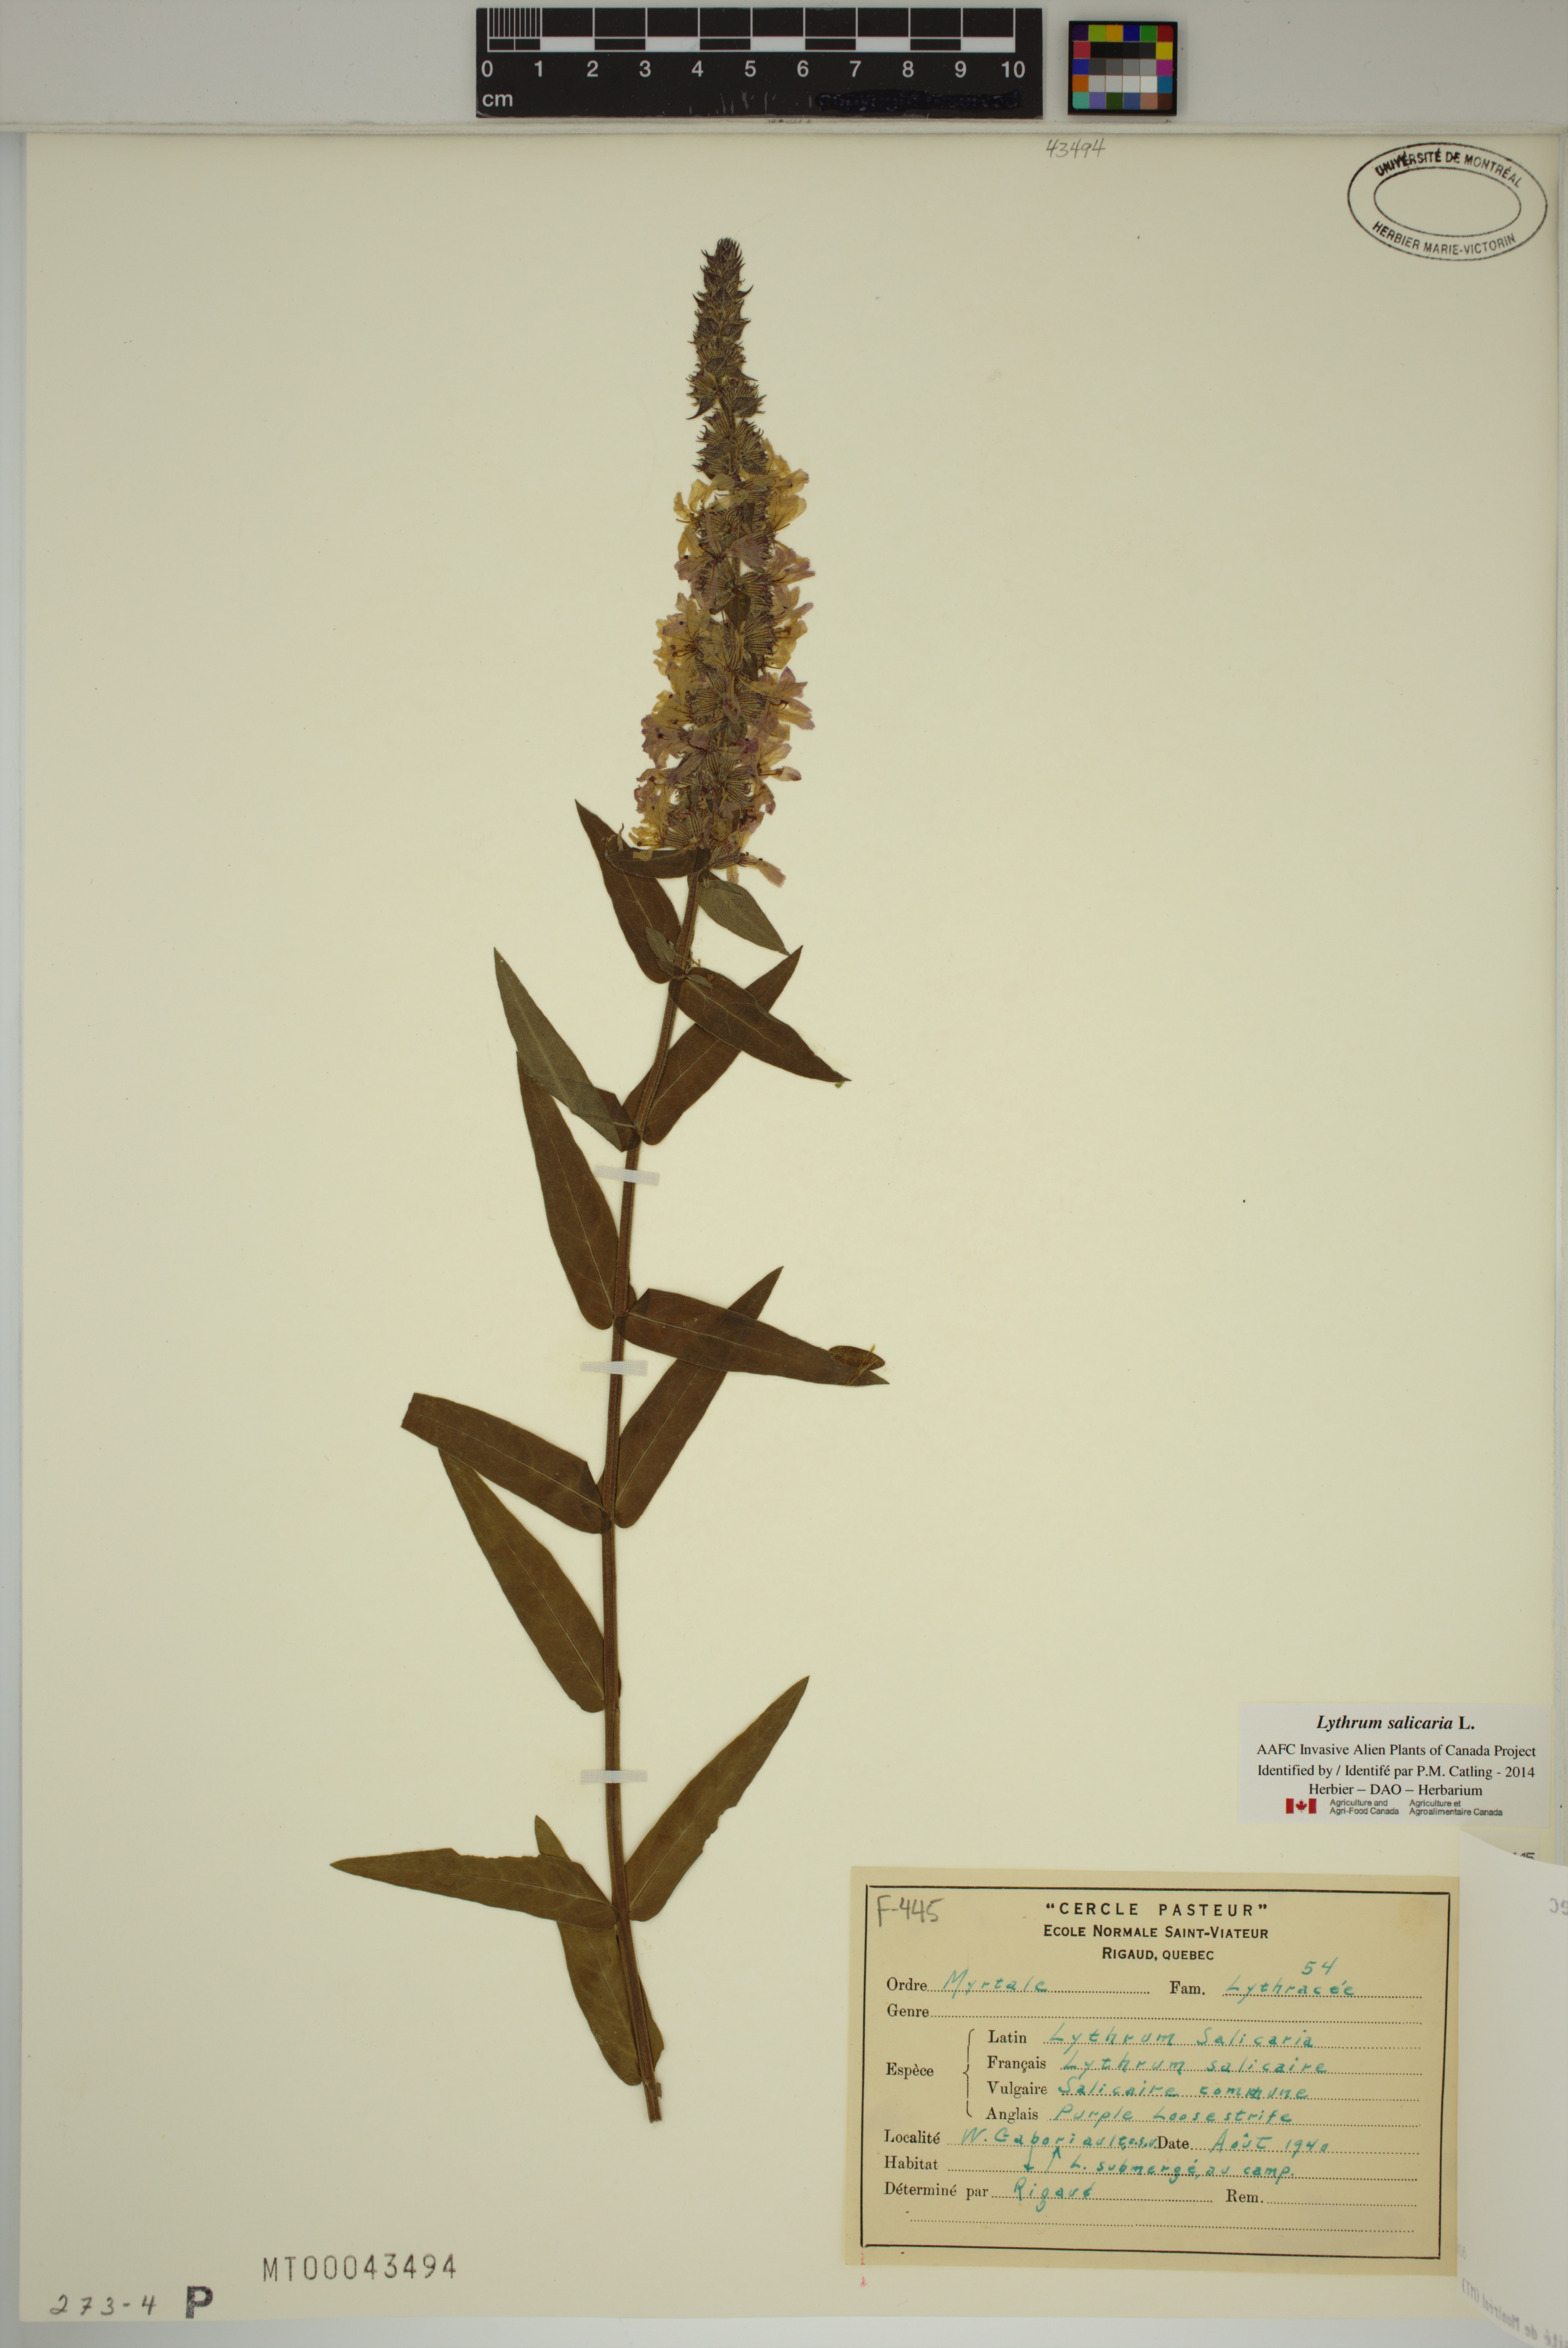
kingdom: Plantae
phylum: Tracheophyta
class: Magnoliopsida
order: Myrtales
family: Lythraceae
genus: Lythrum
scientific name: Lythrum salicaria
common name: Purple loosestrife
